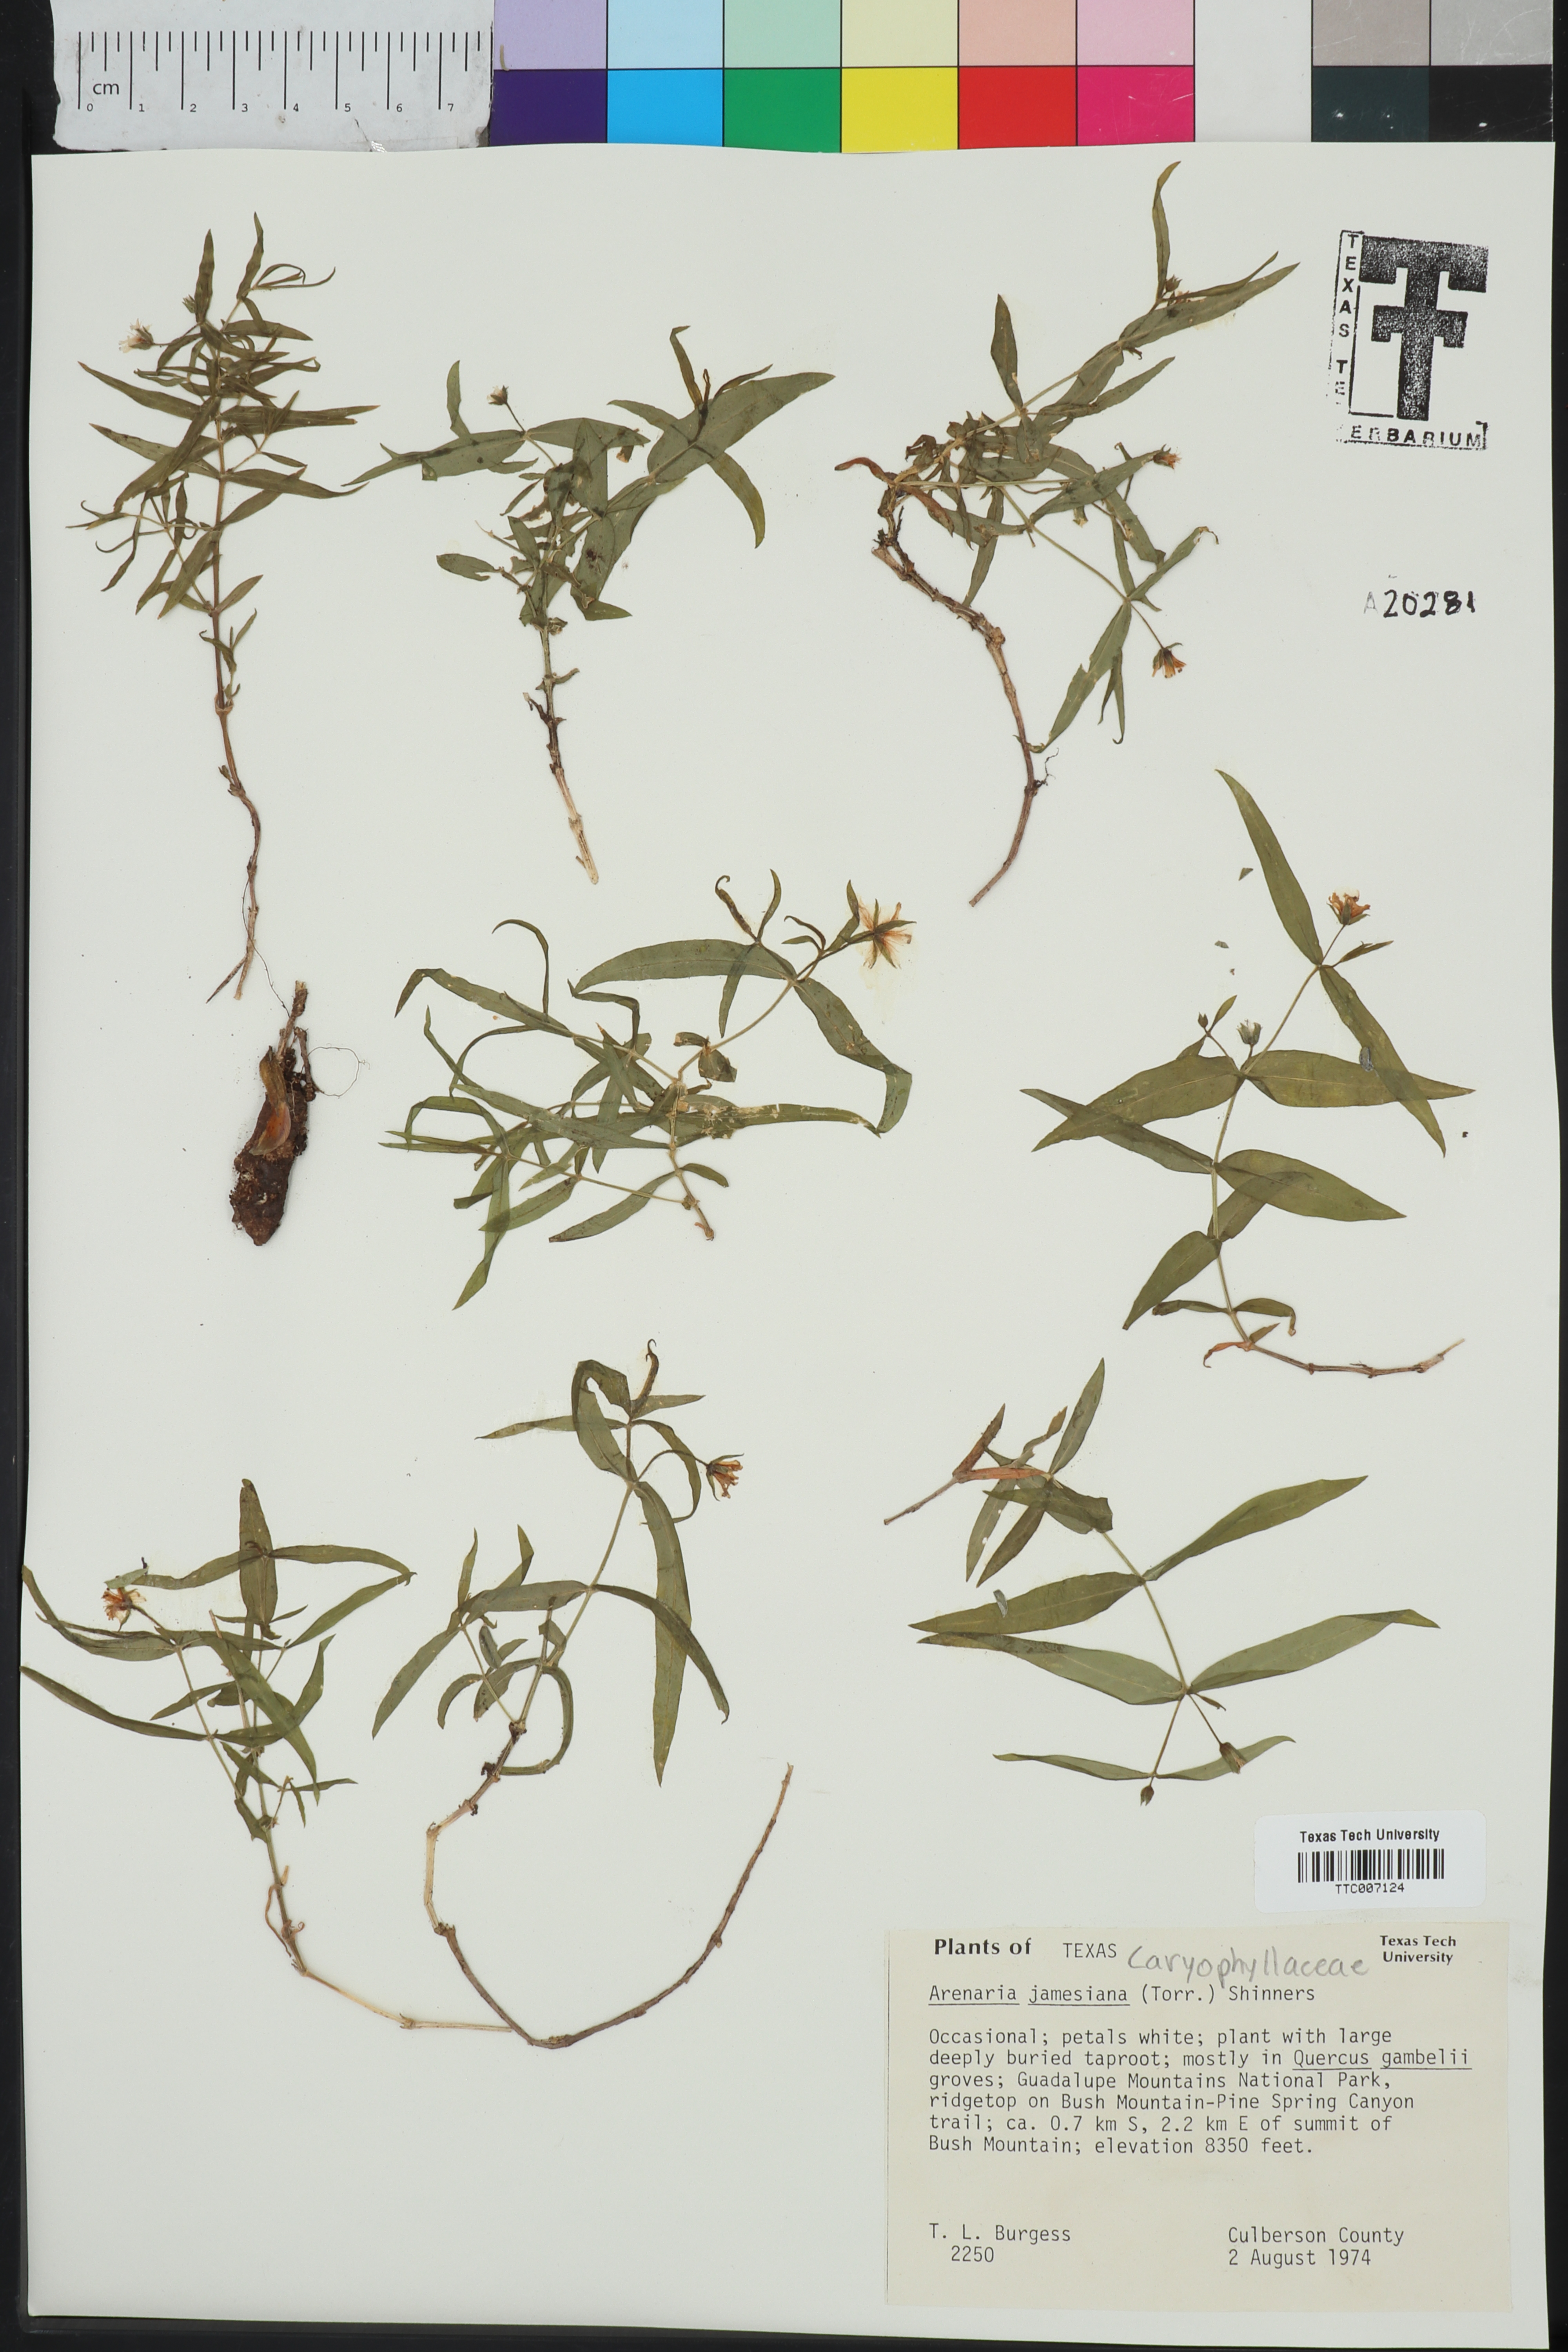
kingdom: Plantae
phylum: Tracheophyta
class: Magnoliopsida
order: Caryophyllales
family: Caryophyllaceae
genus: Schizotechium
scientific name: Schizotechium jamesianum
